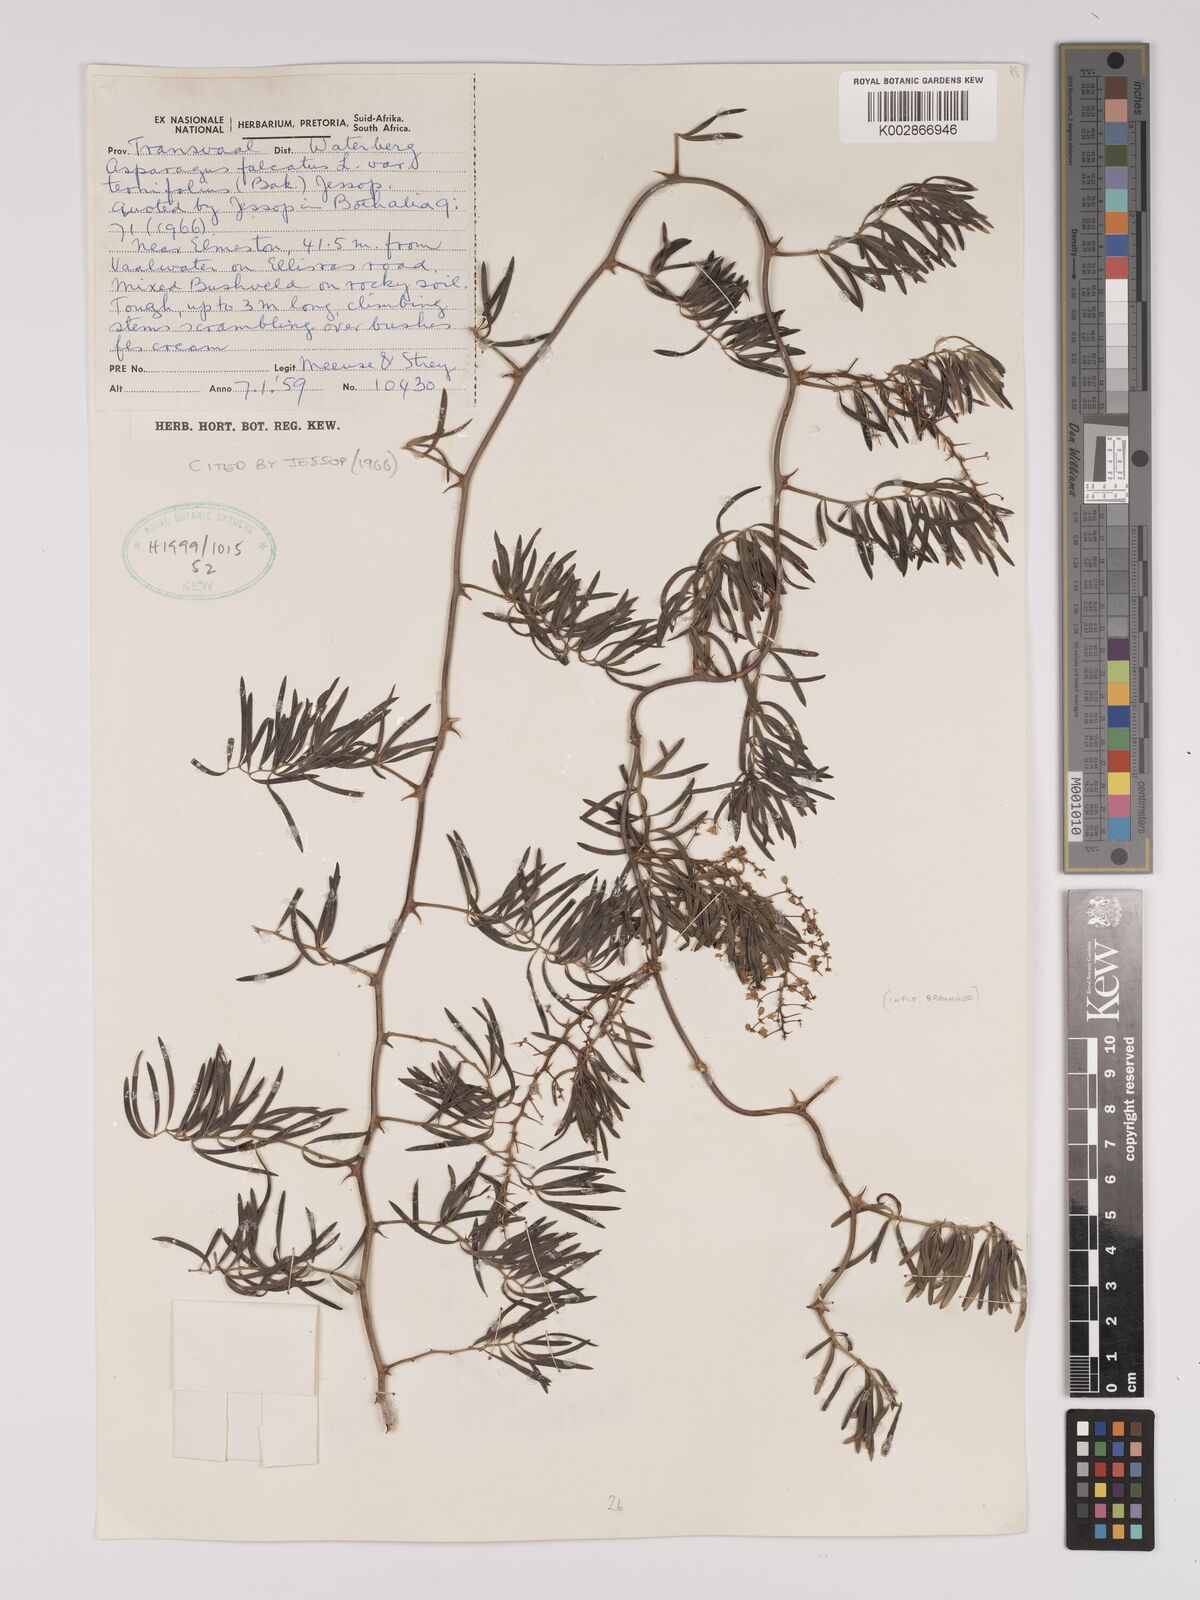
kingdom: Plantae
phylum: Tracheophyta
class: Liliopsida
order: Asparagales
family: Asparagaceae
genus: Asparagus
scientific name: Asparagus falcatus
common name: Asparagus
